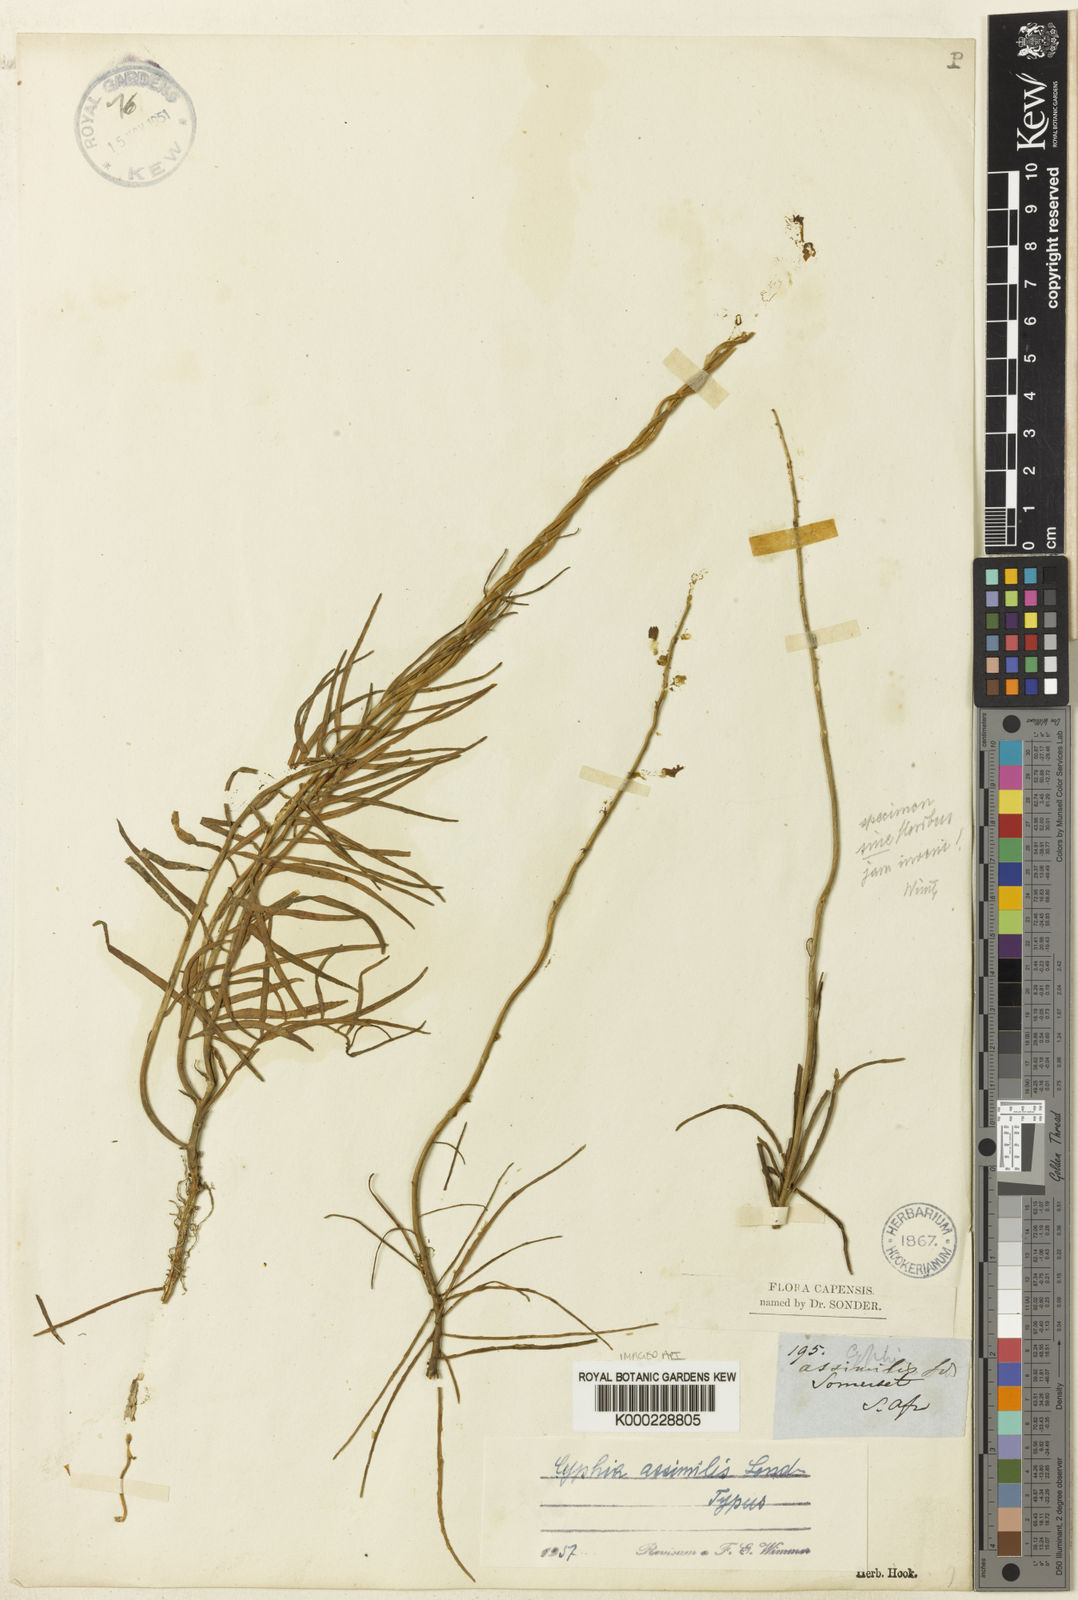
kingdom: Plantae
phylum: Tracheophyta
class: Magnoliopsida
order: Asterales
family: Campanulaceae
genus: Cyphia
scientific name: Cyphia persicifolia
